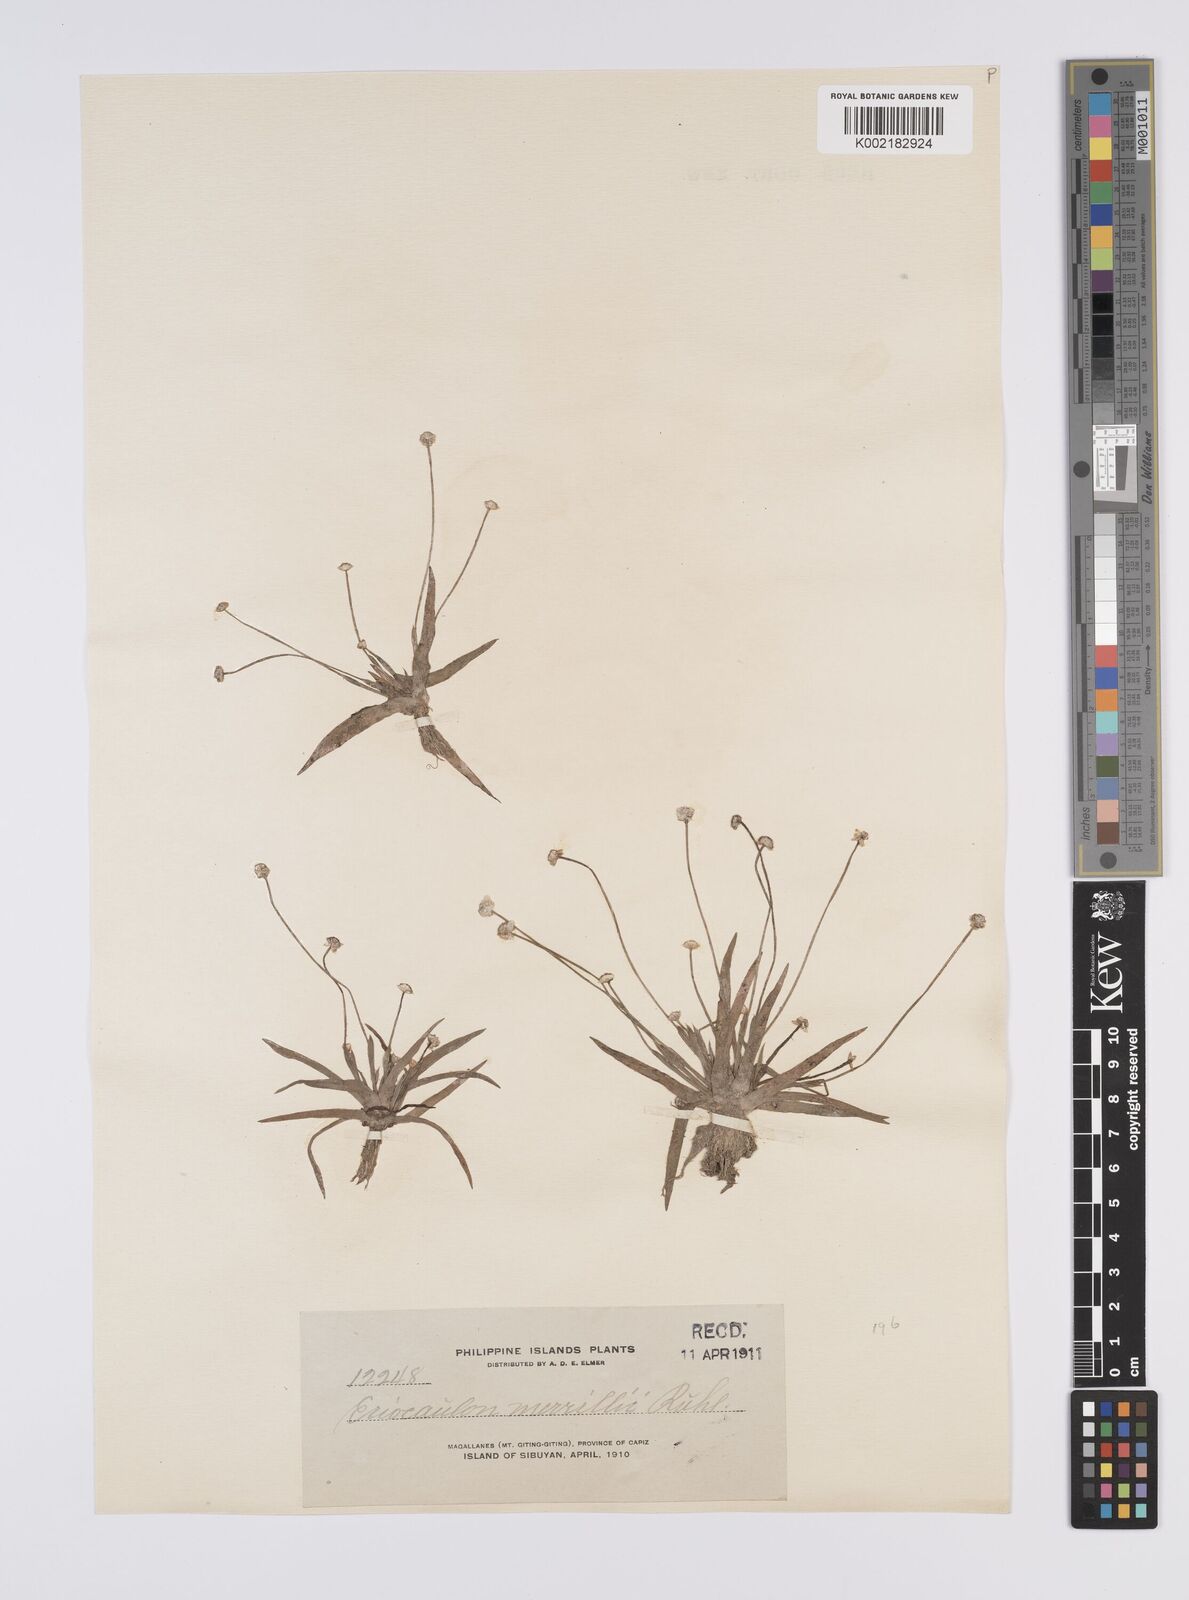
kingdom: Plantae
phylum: Tracheophyta
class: Liliopsida
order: Poales
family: Eriocaulaceae
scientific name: Eriocaulaceae
